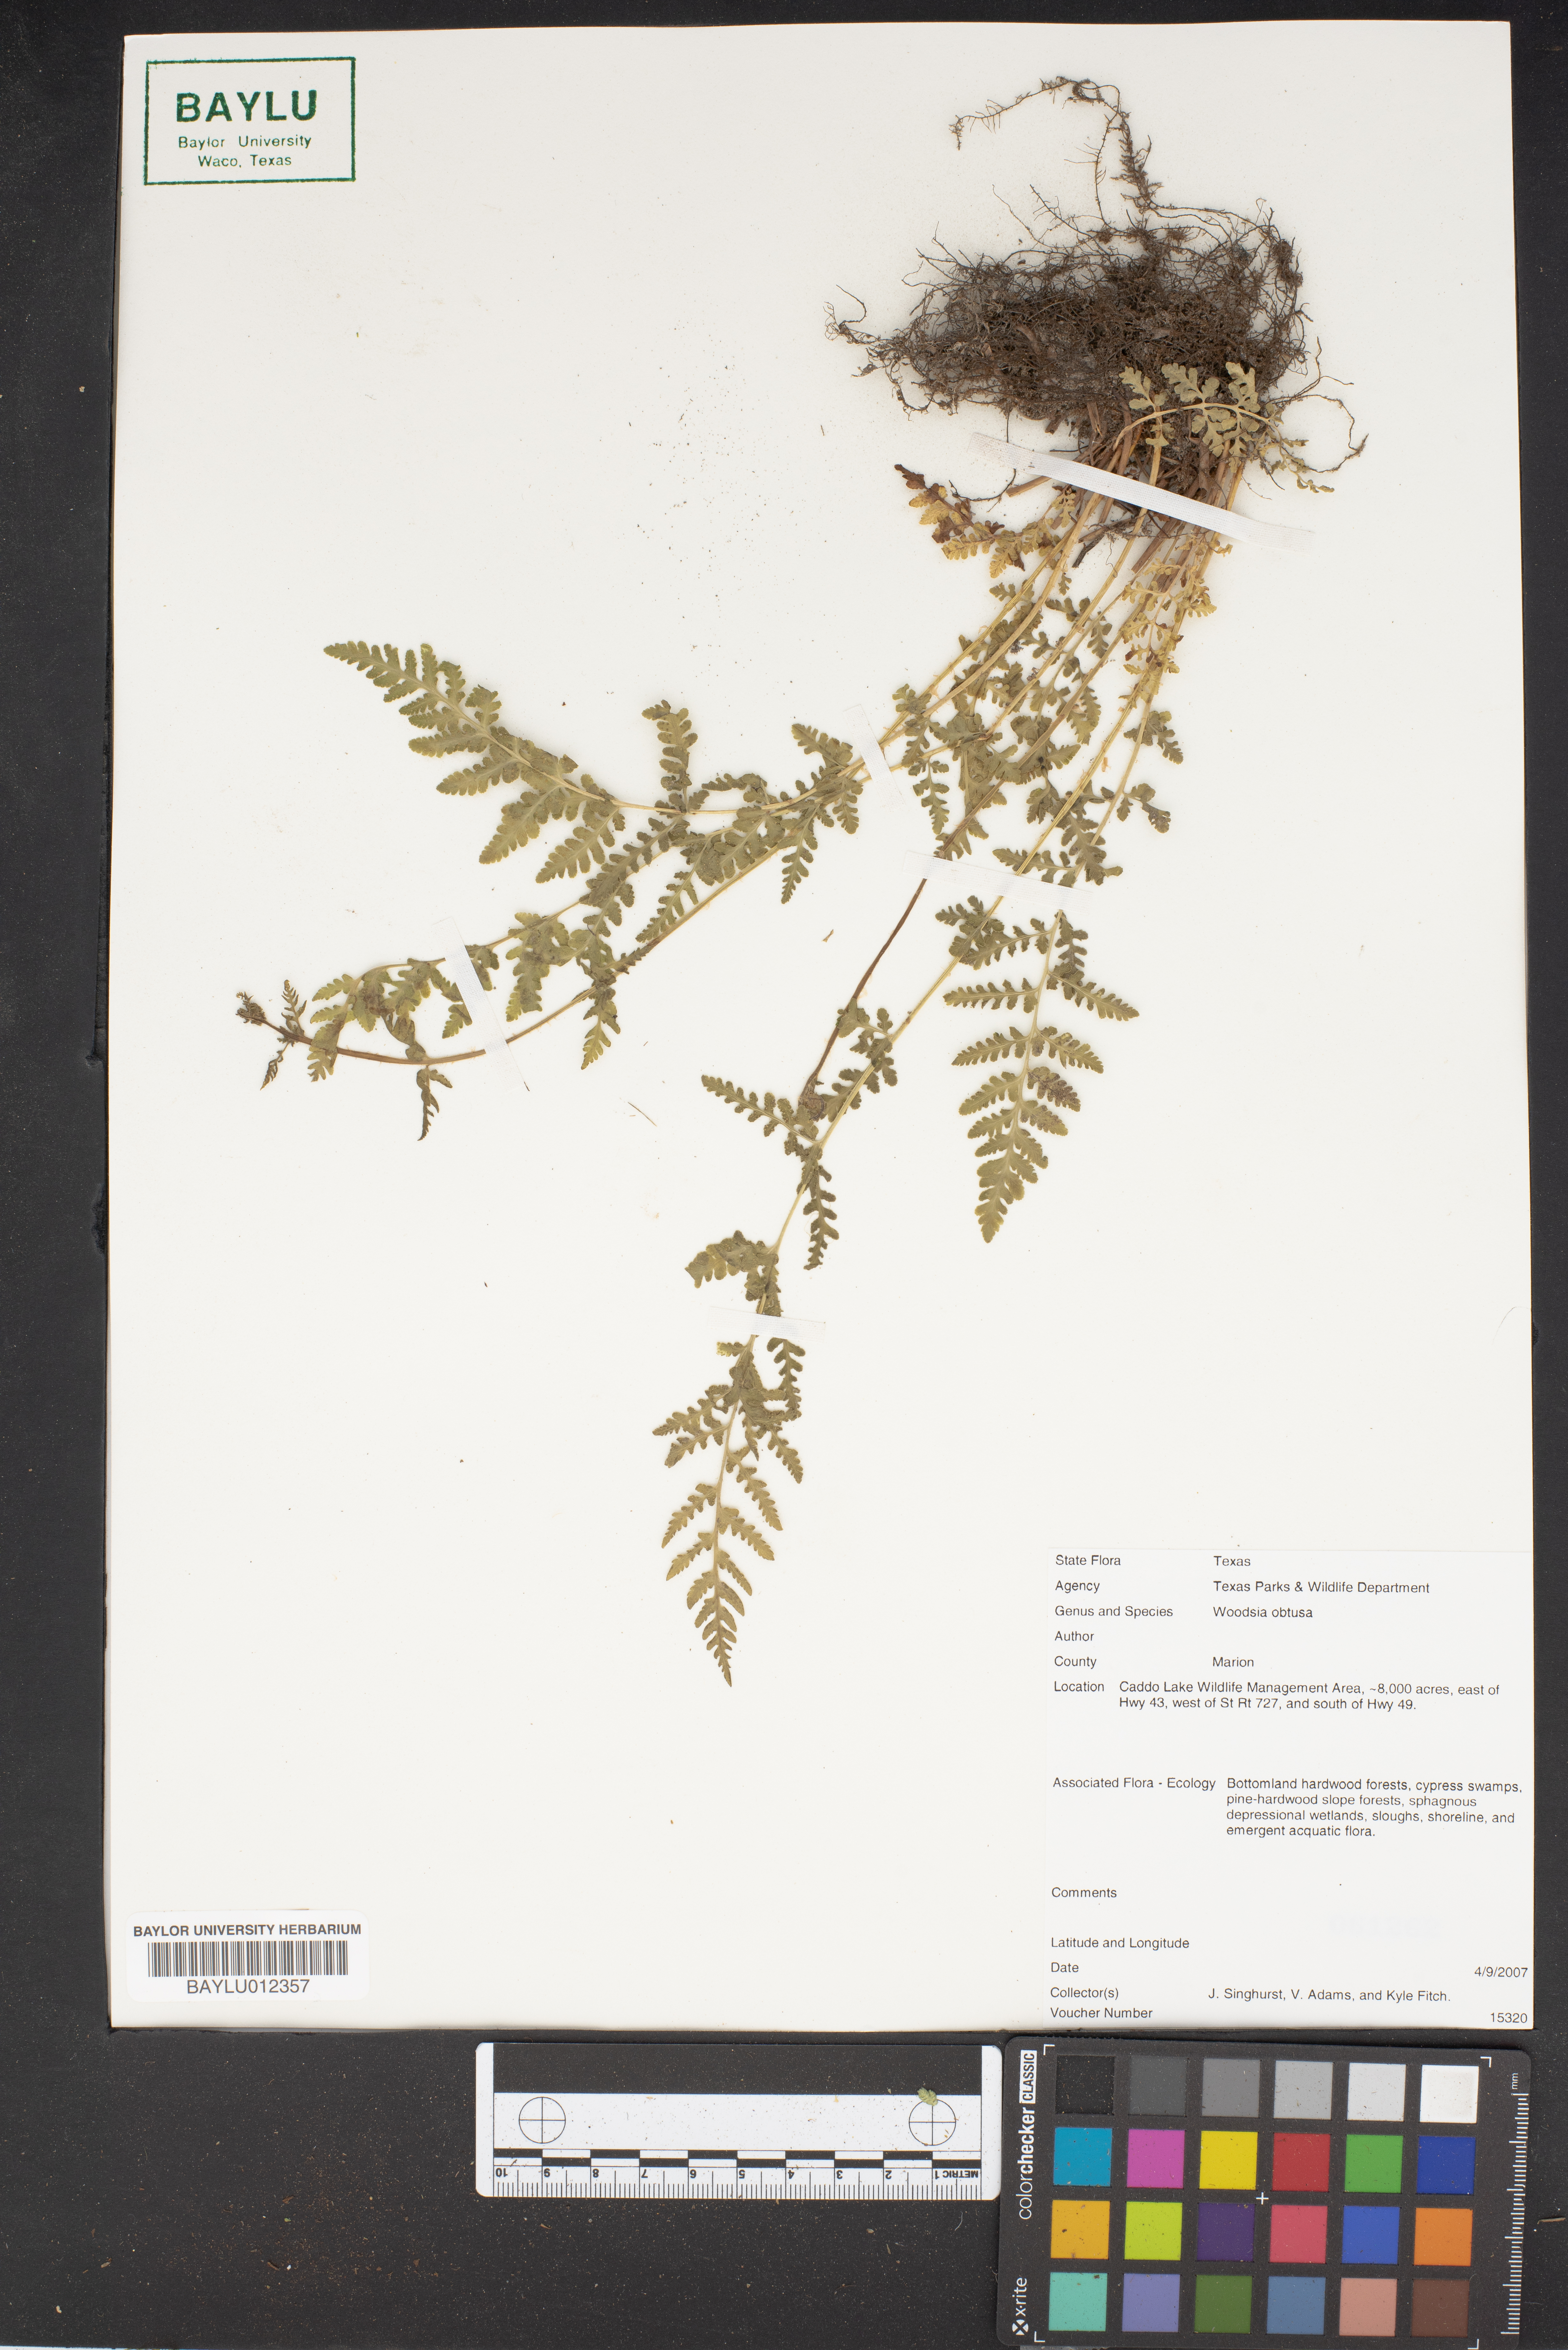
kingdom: Plantae
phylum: Tracheophyta
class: Polypodiopsida
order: Polypodiales
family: Woodsiaceae
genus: Physematium
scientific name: Physematium obtusum
